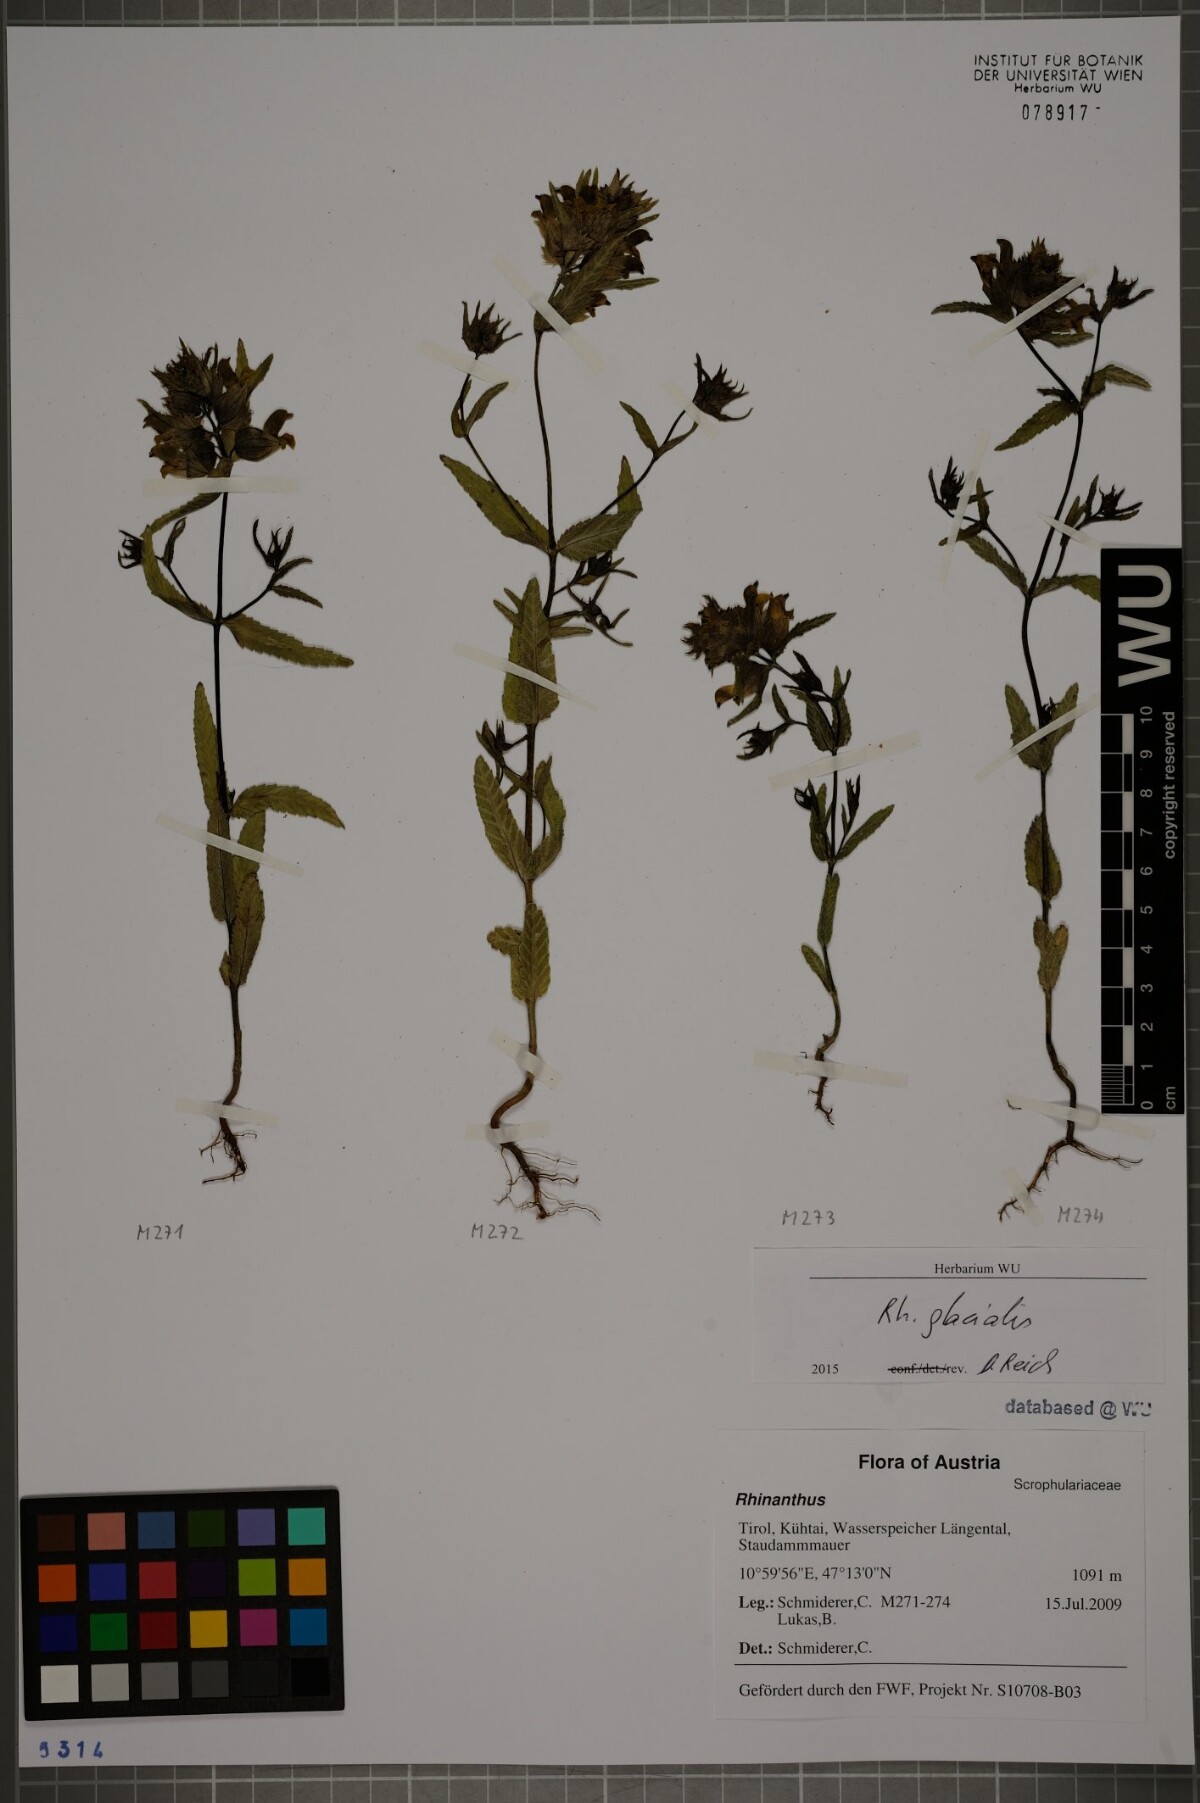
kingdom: Plantae
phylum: Tracheophyta
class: Magnoliopsida
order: Lamiales
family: Orobanchaceae
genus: Rhinanthus
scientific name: Rhinanthus glacialis
